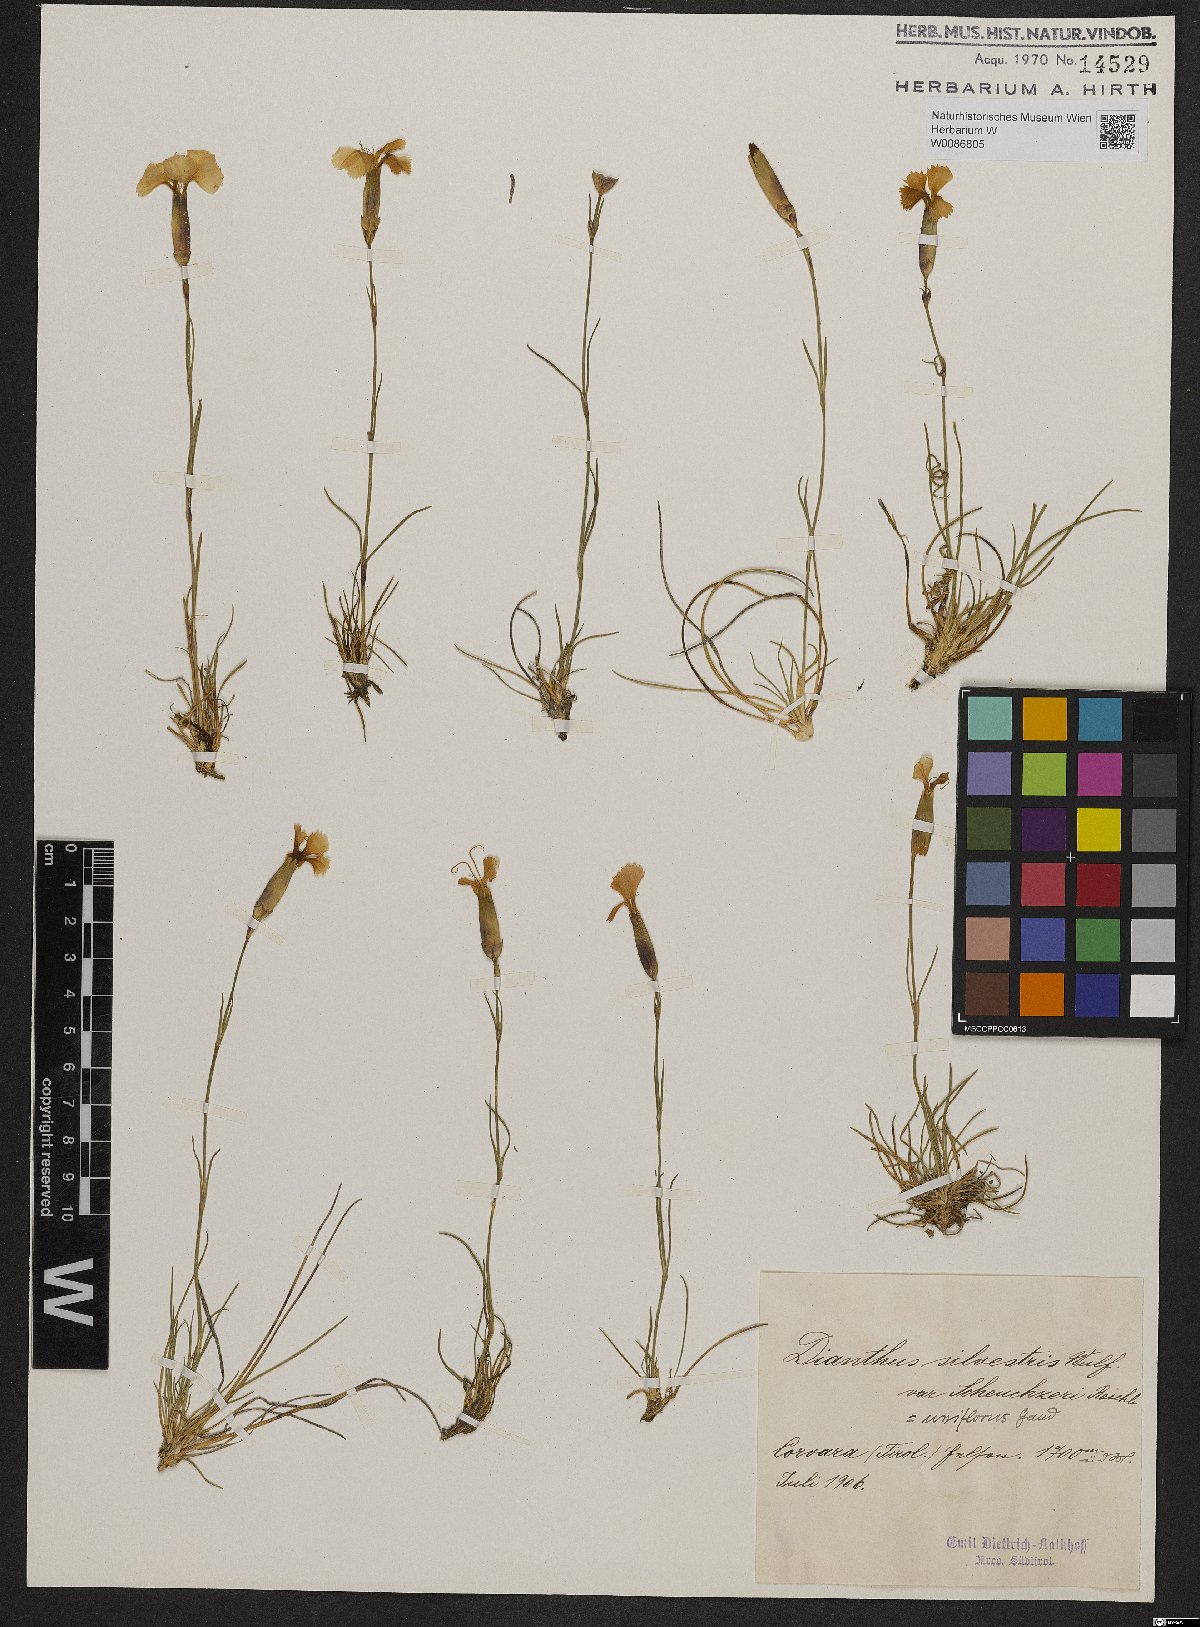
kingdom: Plantae
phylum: Tracheophyta
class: Magnoliopsida
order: Caryophyllales
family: Caryophyllaceae
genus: Dianthus
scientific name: Dianthus sylvestris
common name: Wood pink
